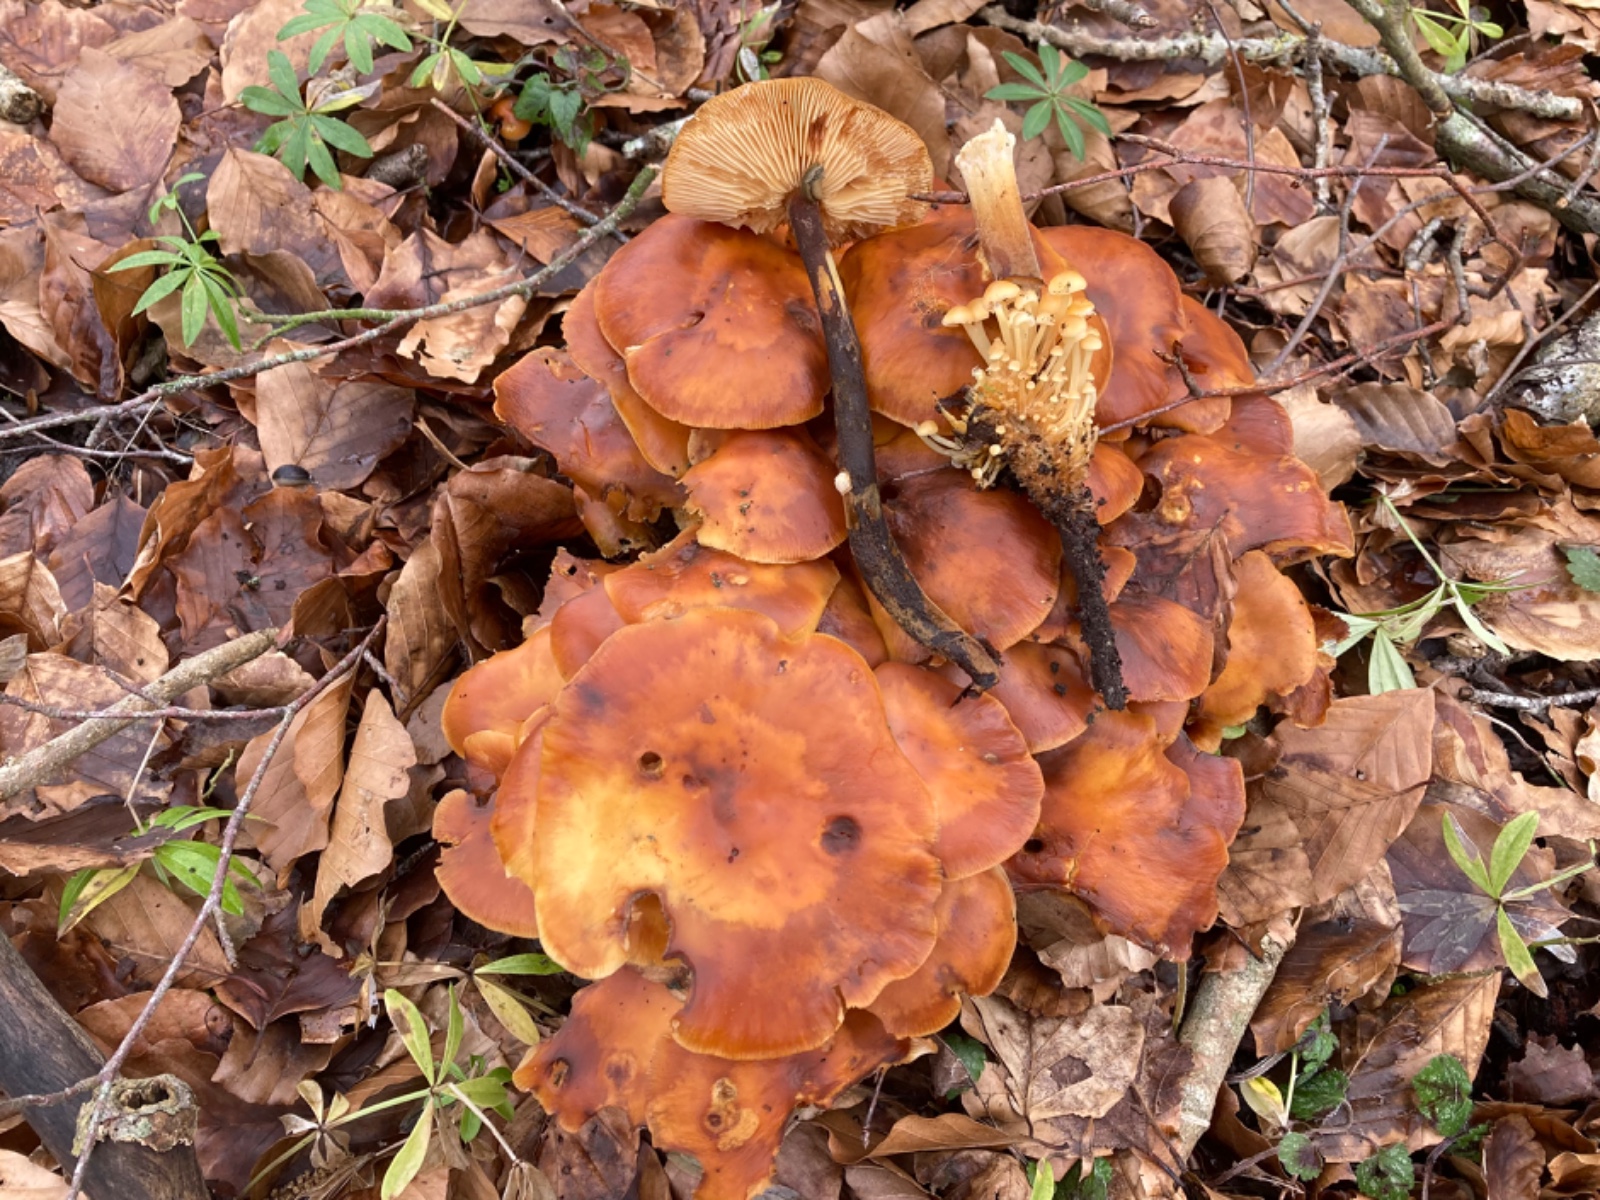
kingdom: Fungi
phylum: Basidiomycota
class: Agaricomycetes
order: Agaricales
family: Physalacriaceae
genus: Flammulina
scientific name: Flammulina
